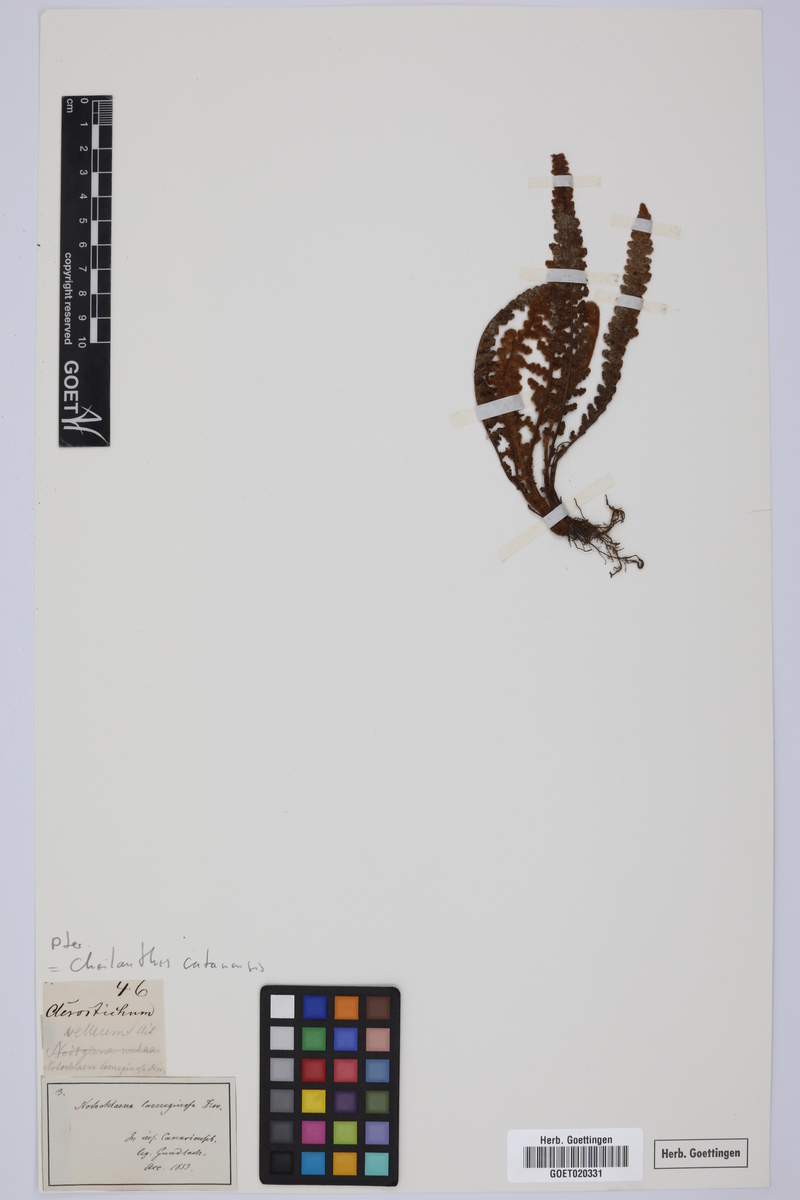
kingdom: Plantae
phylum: Tracheophyta
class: Polypodiopsida
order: Polypodiales
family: Pteridaceae
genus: Cosentinia
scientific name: Cosentinia vellea
